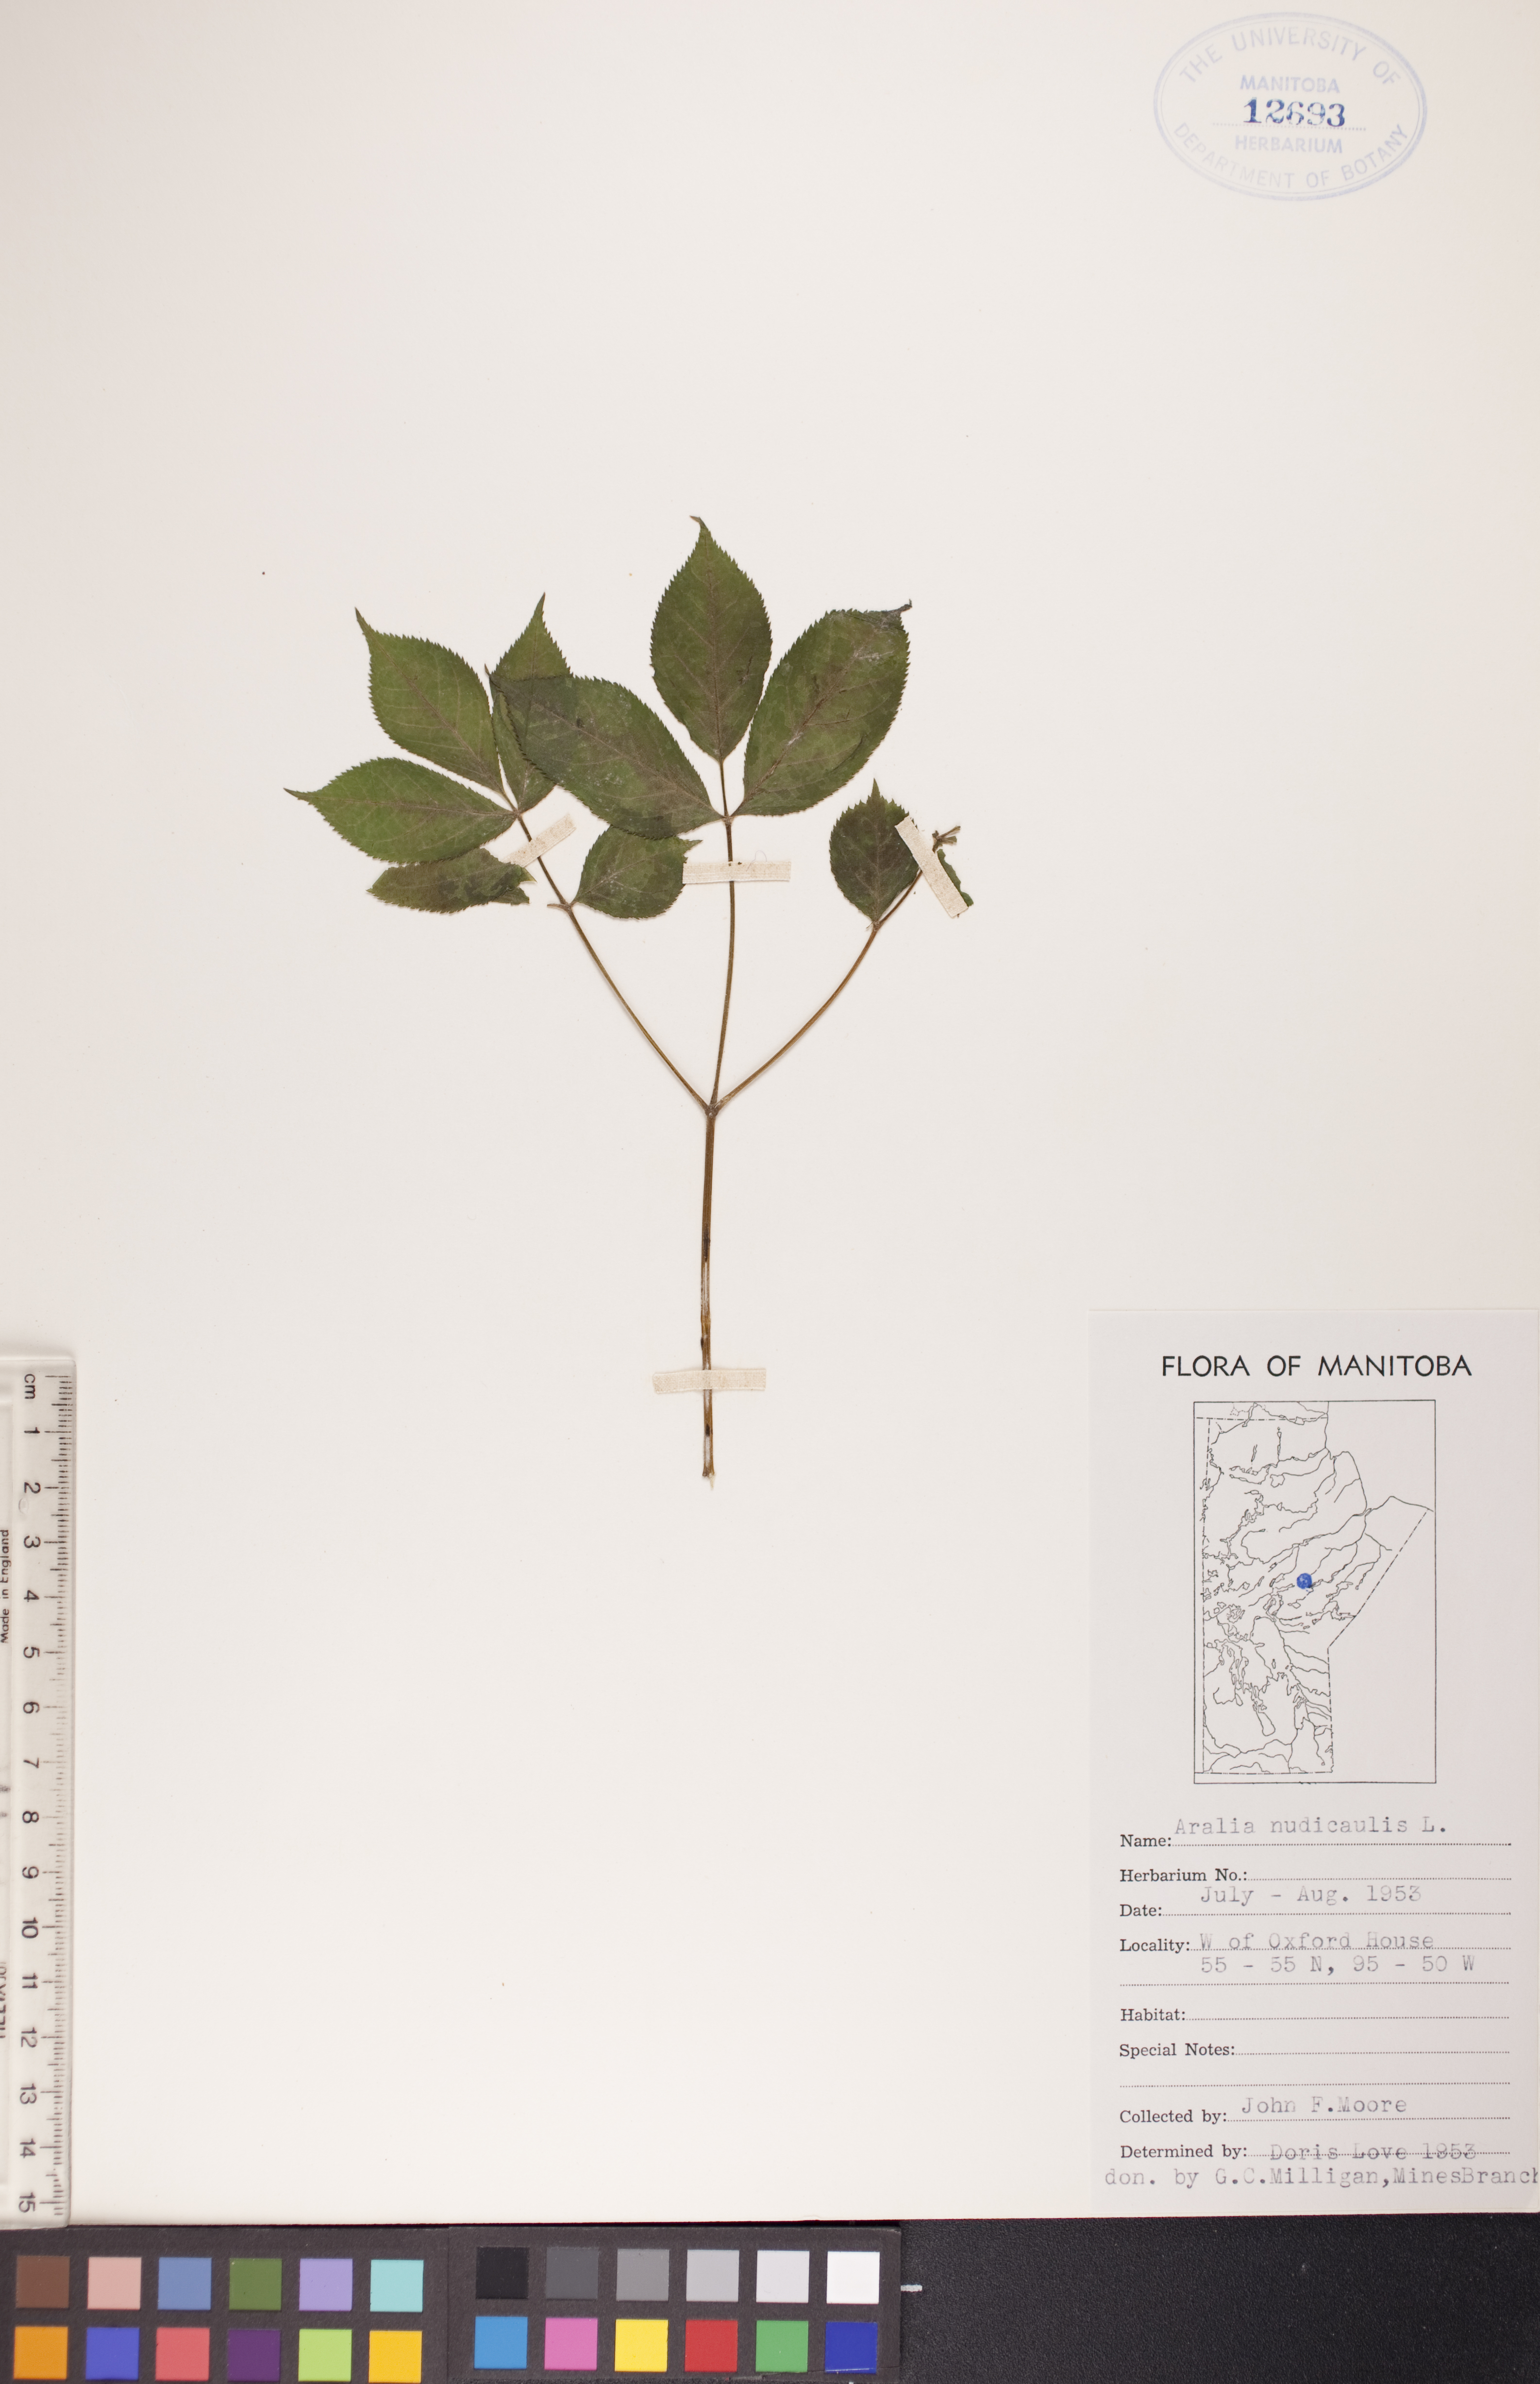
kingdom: Plantae
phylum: Tracheophyta
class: Magnoliopsida
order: Apiales
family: Araliaceae
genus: Aralia
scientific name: Aralia nudicaulis
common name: Wild sarsaparilla
